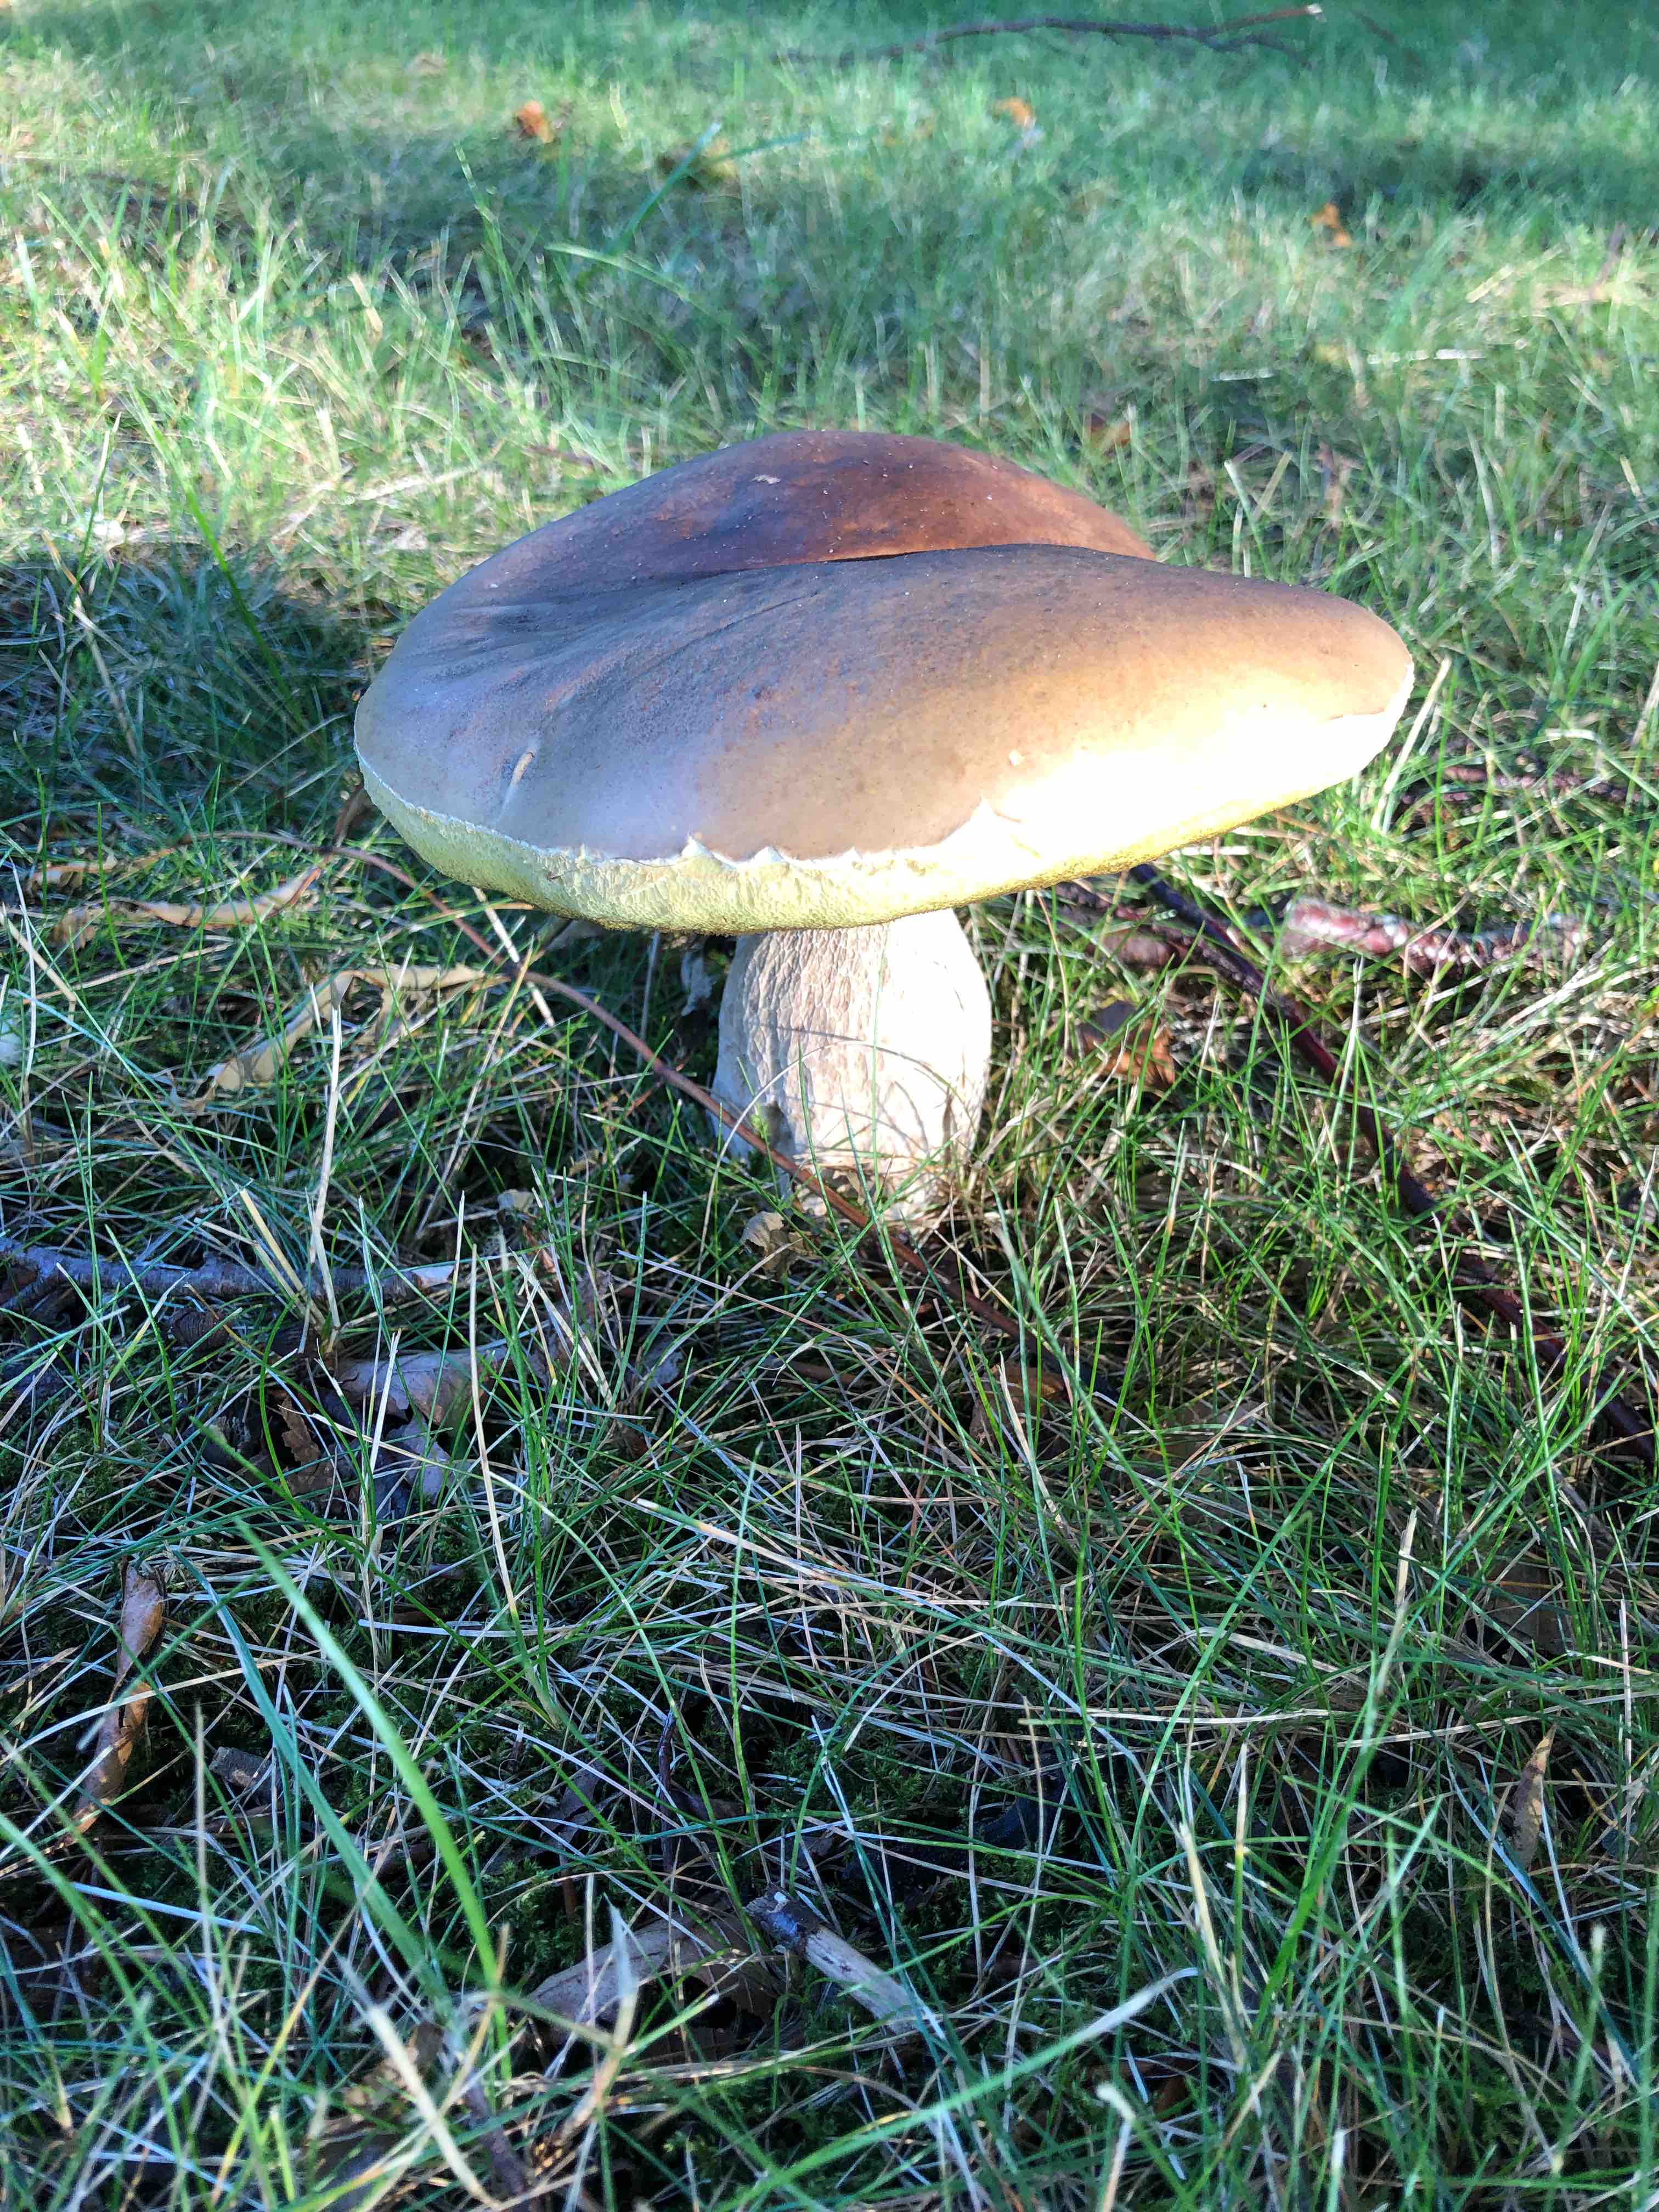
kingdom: Fungi
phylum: Basidiomycota
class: Agaricomycetes
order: Boletales
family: Boletaceae
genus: Boletus
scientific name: Boletus edulis
